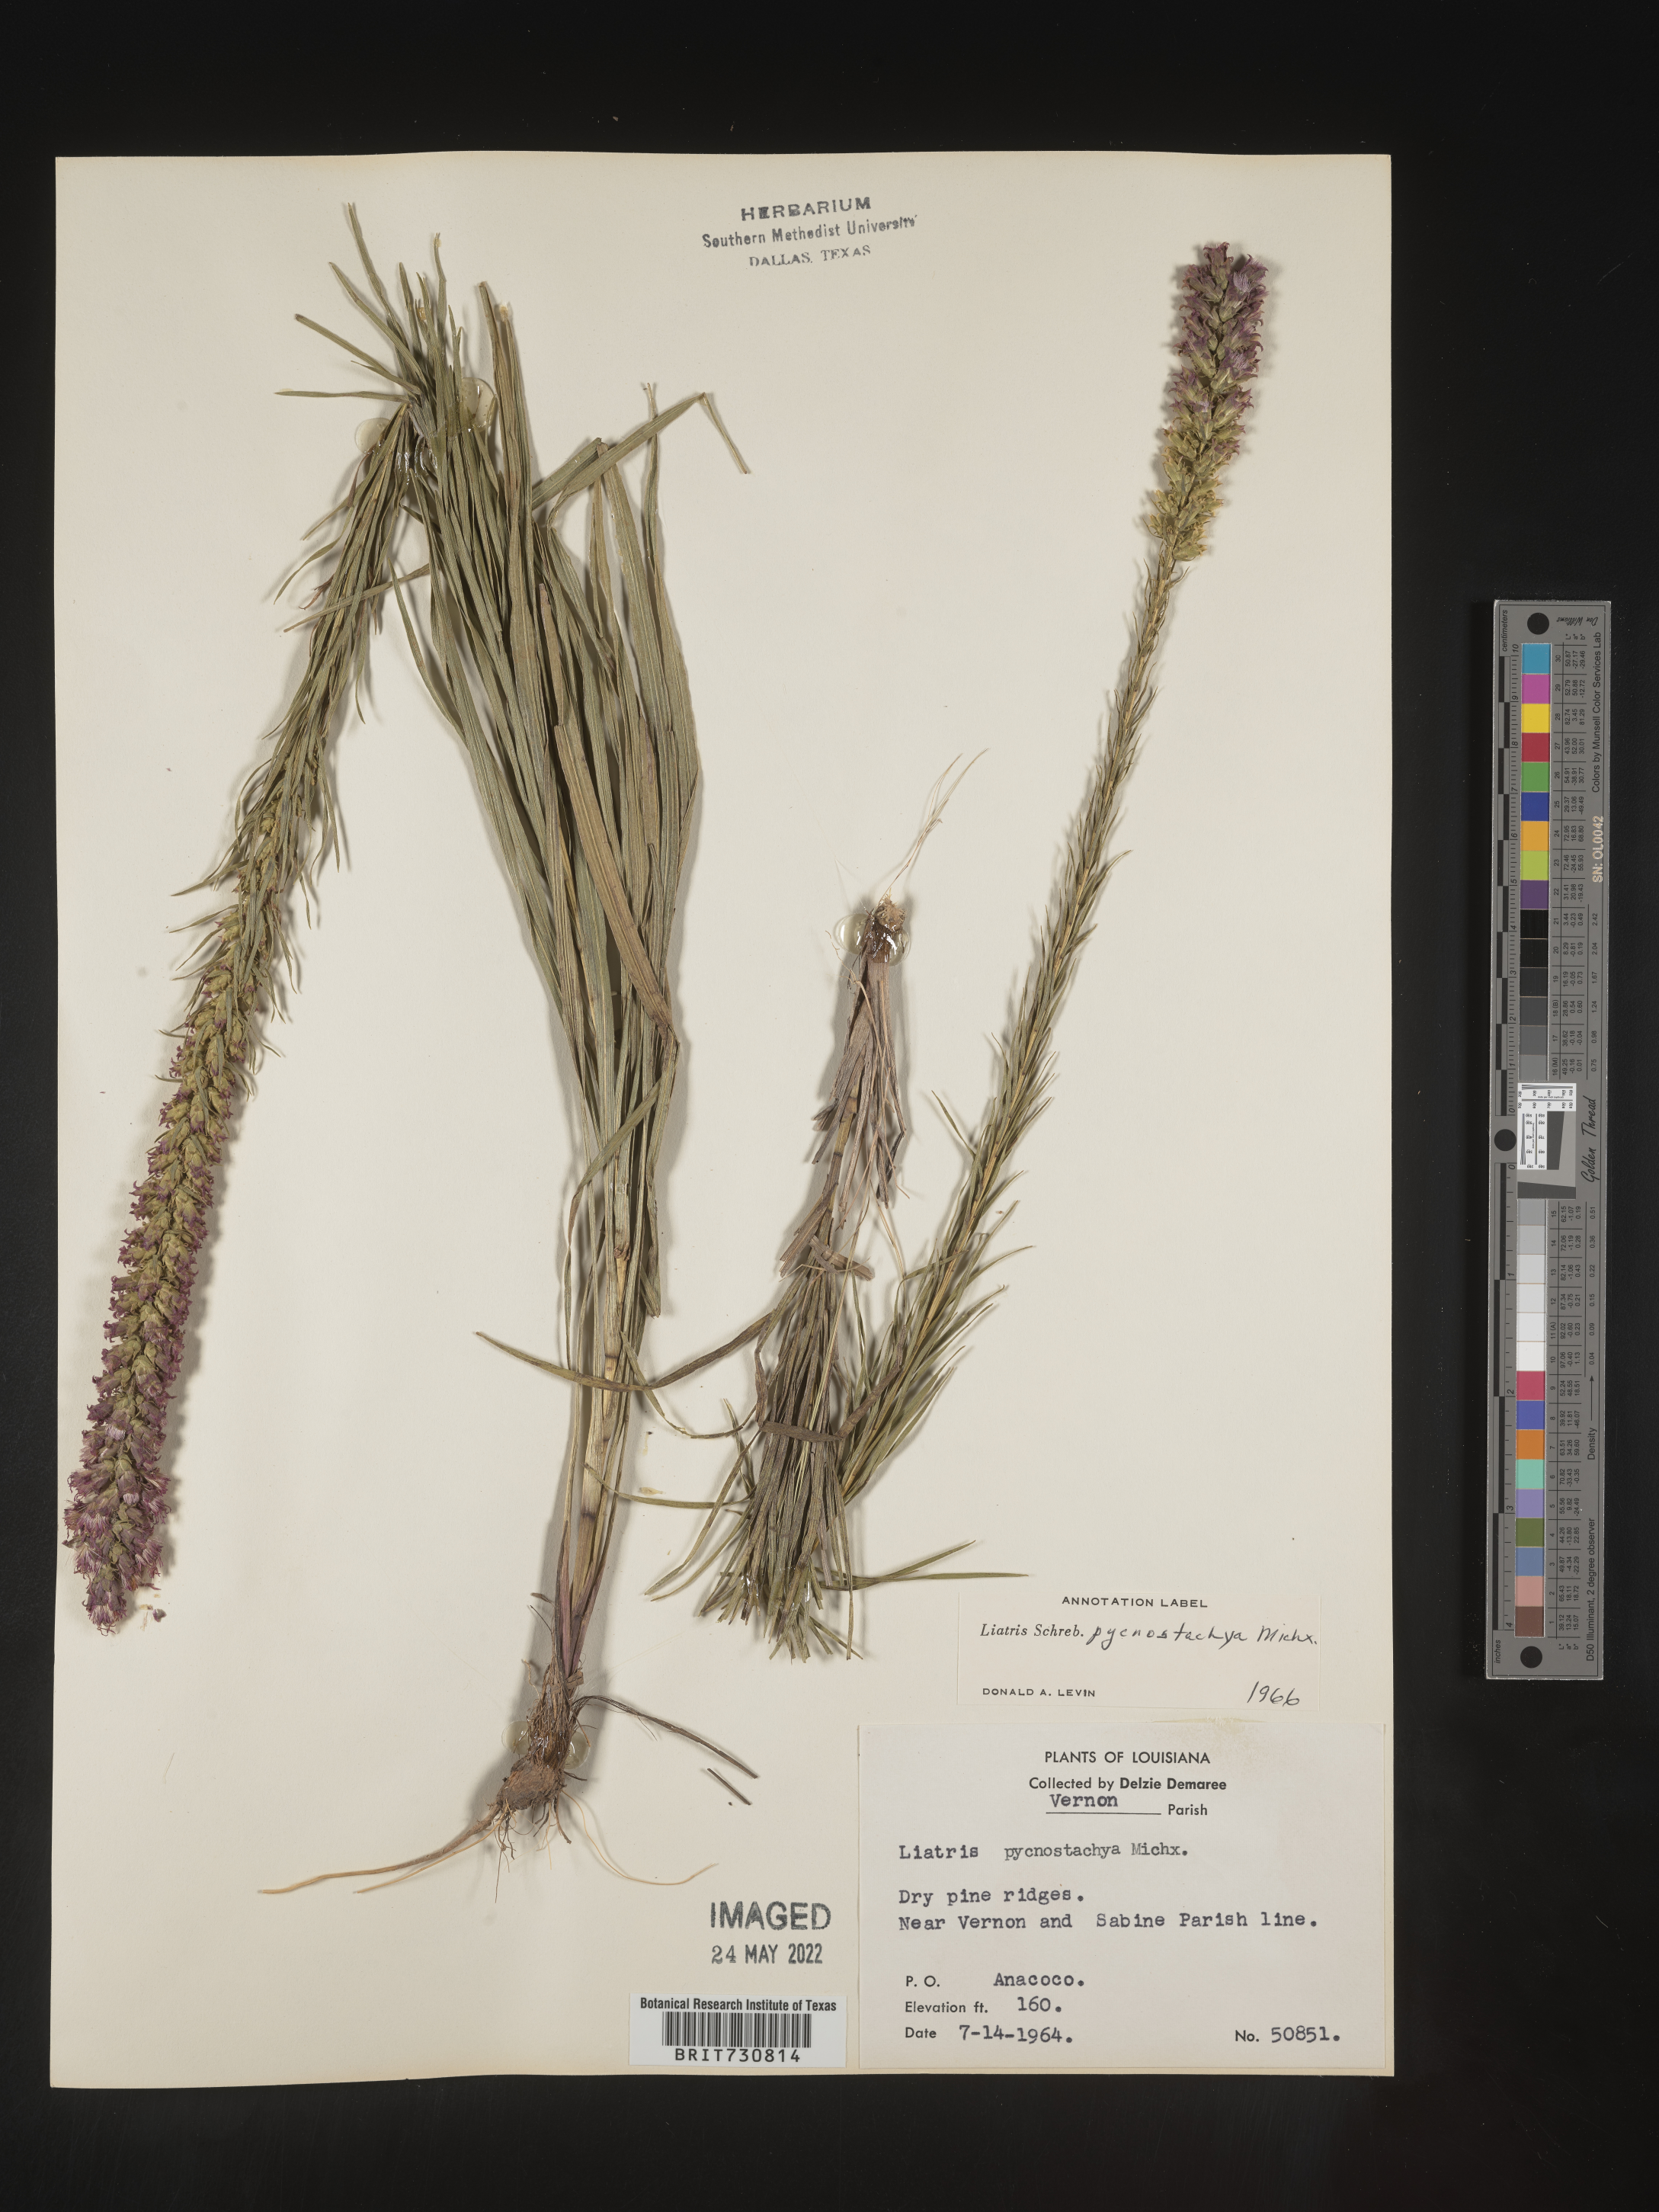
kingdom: Plantae
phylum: Tracheophyta
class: Magnoliopsida
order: Asterales
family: Asteraceae
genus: Liatris
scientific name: Liatris pycnostachya
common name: Cattail gayfeather
